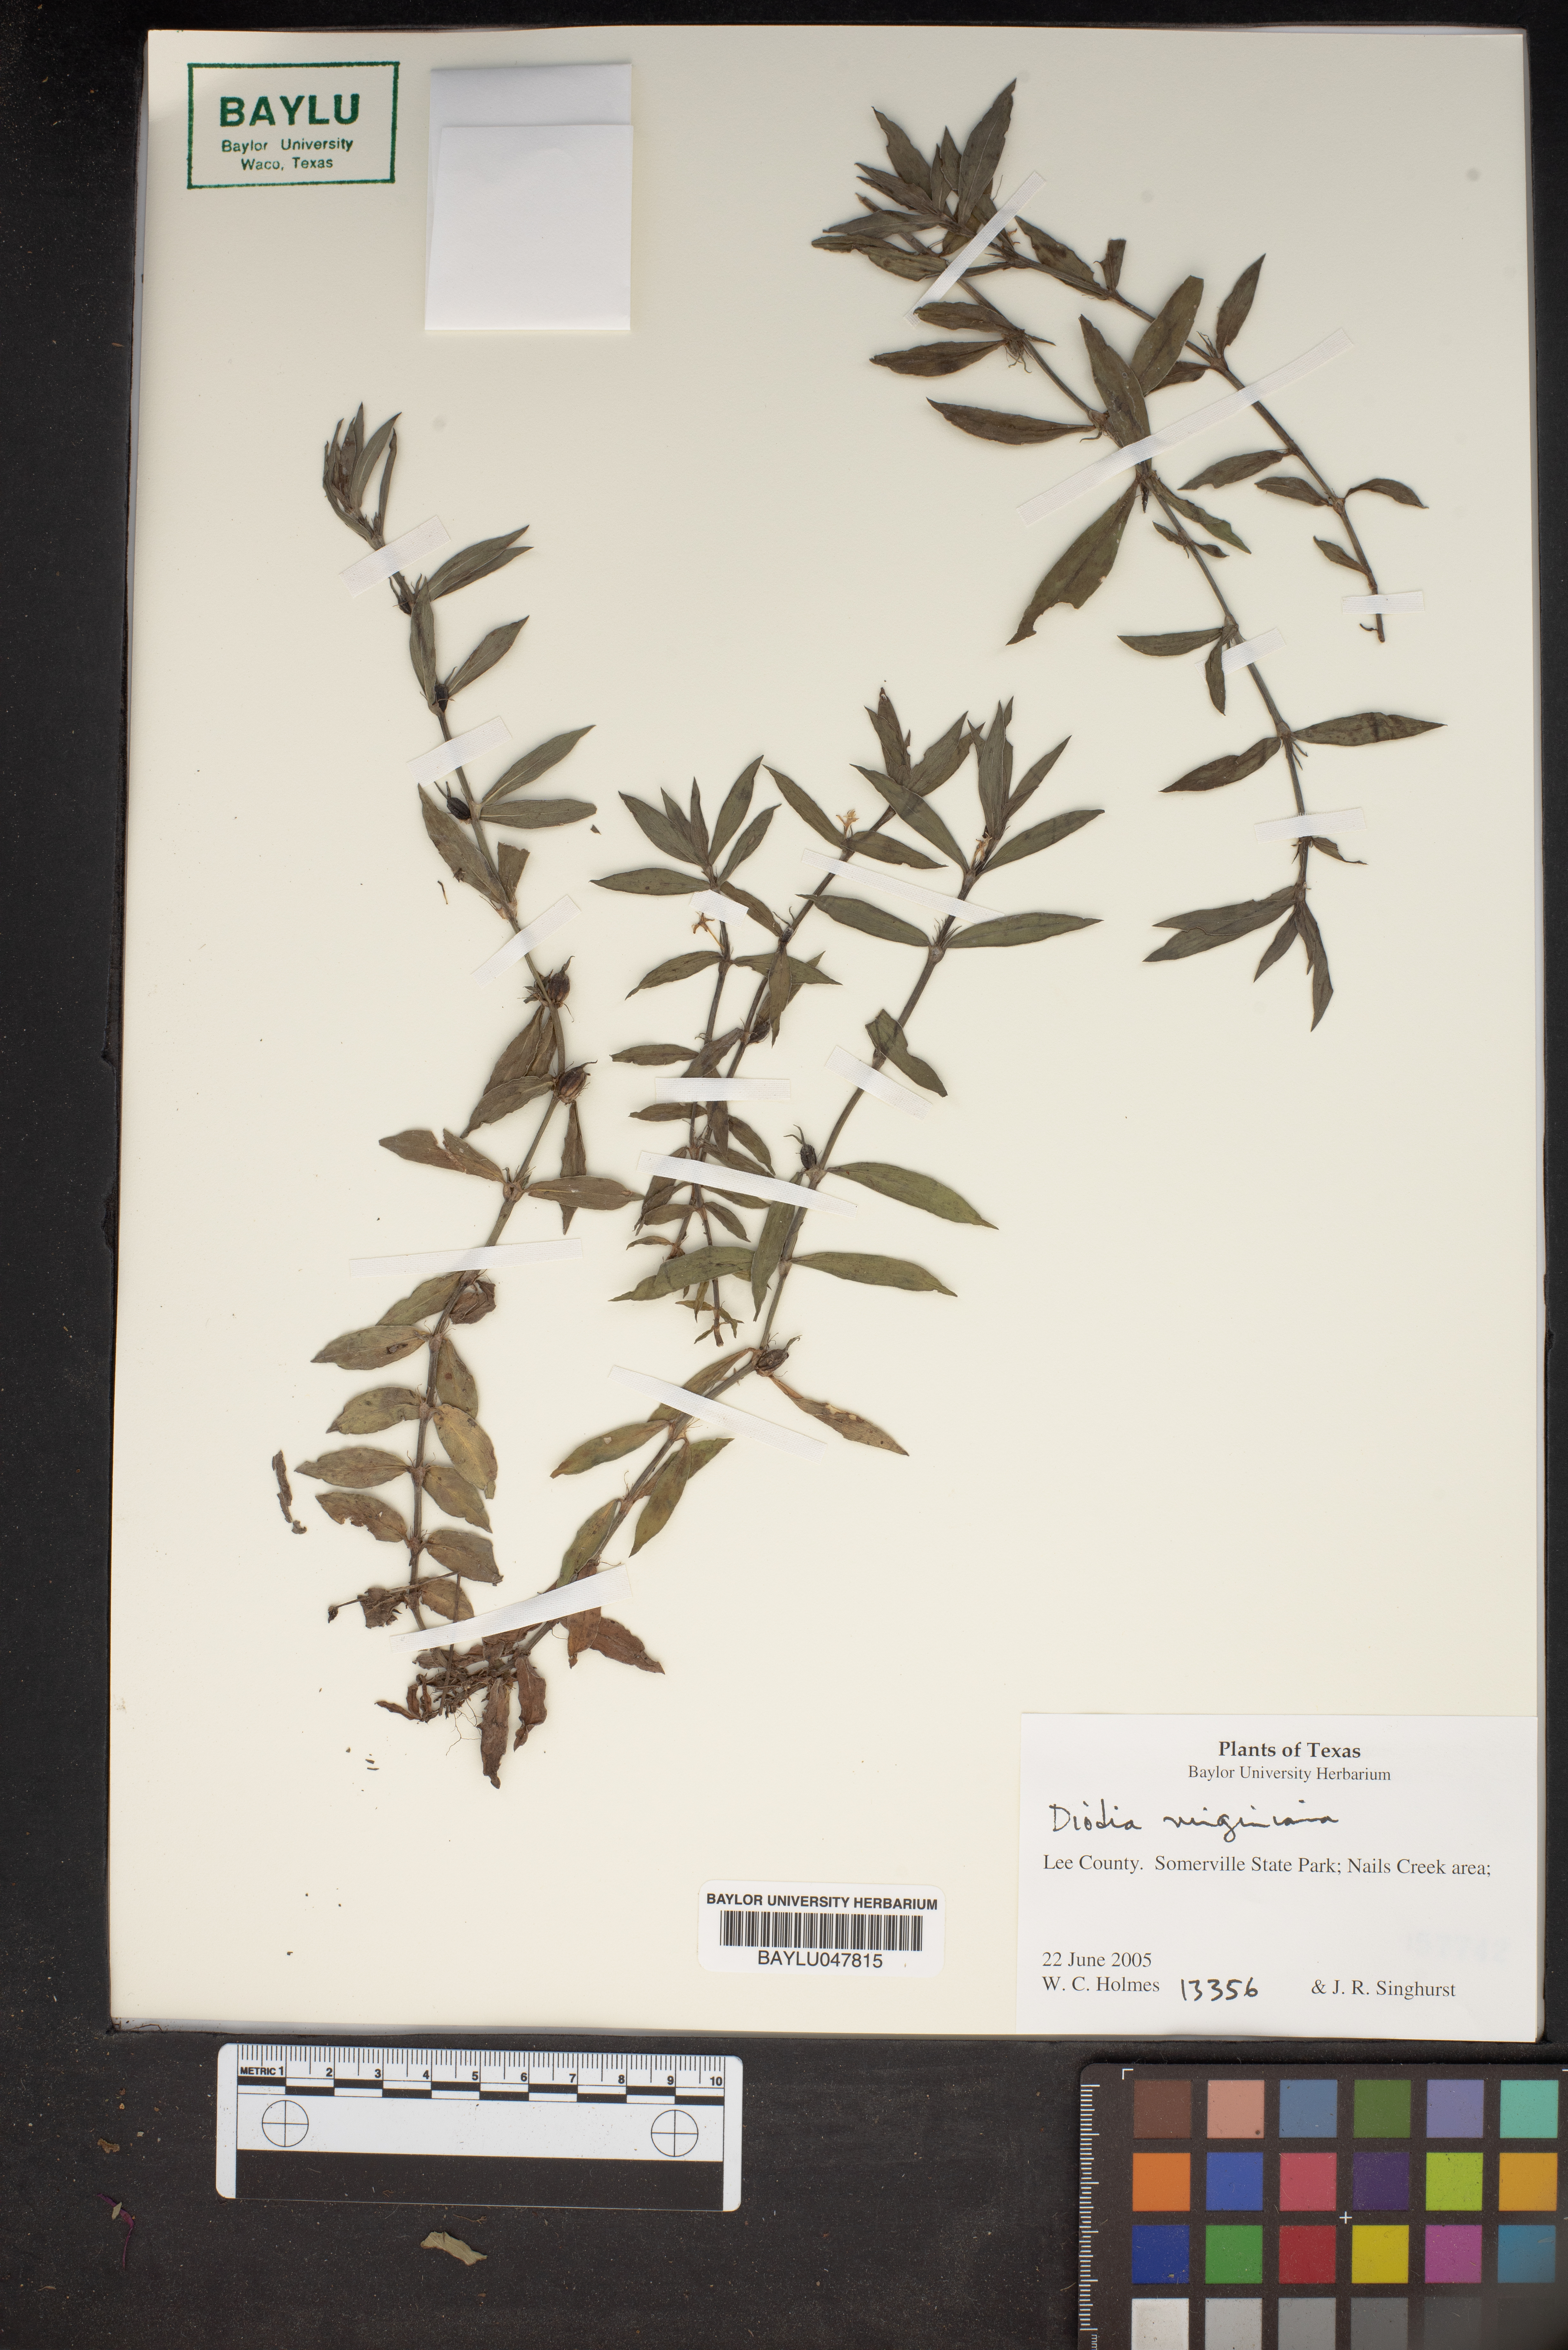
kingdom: Plantae
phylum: Tracheophyta
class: Magnoliopsida
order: Gentianales
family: Rubiaceae
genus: Diodia
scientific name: Diodia virginiana
